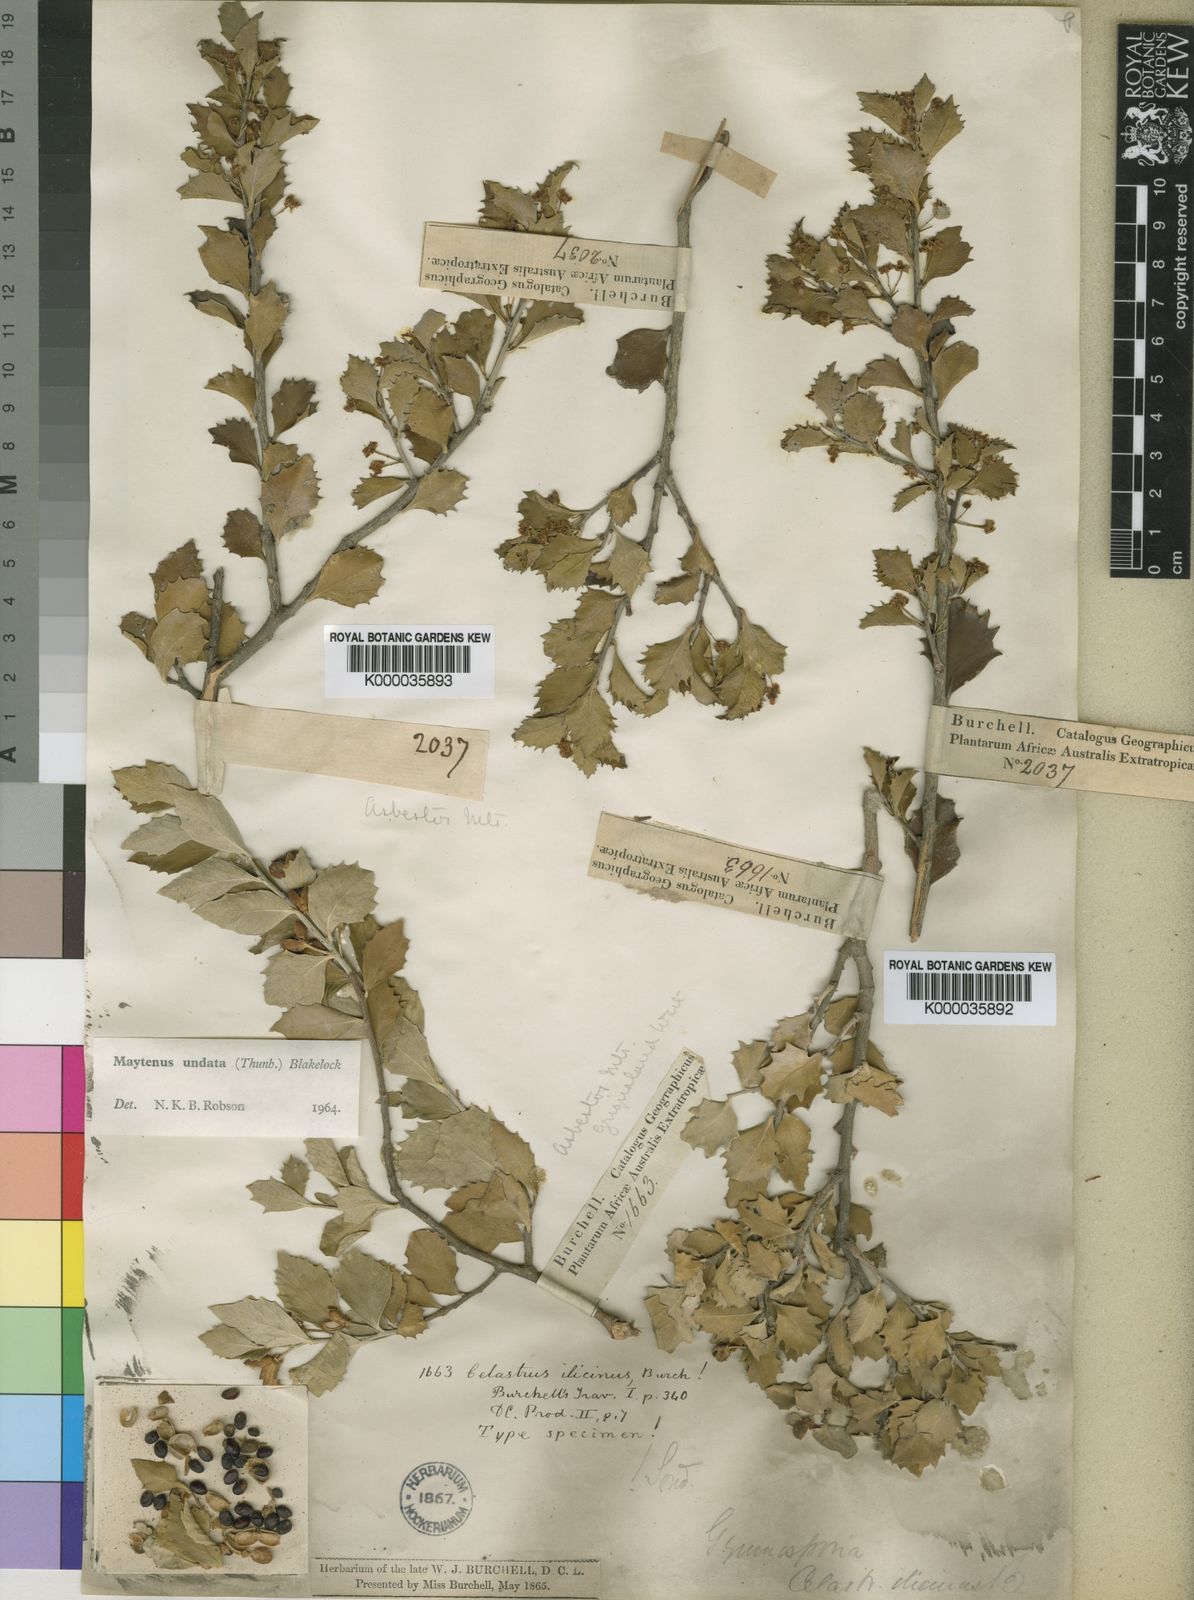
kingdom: Plantae
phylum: Tracheophyta
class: Magnoliopsida
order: Celastrales
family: Celastraceae
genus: Gymnosporia
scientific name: Gymnosporia undata
